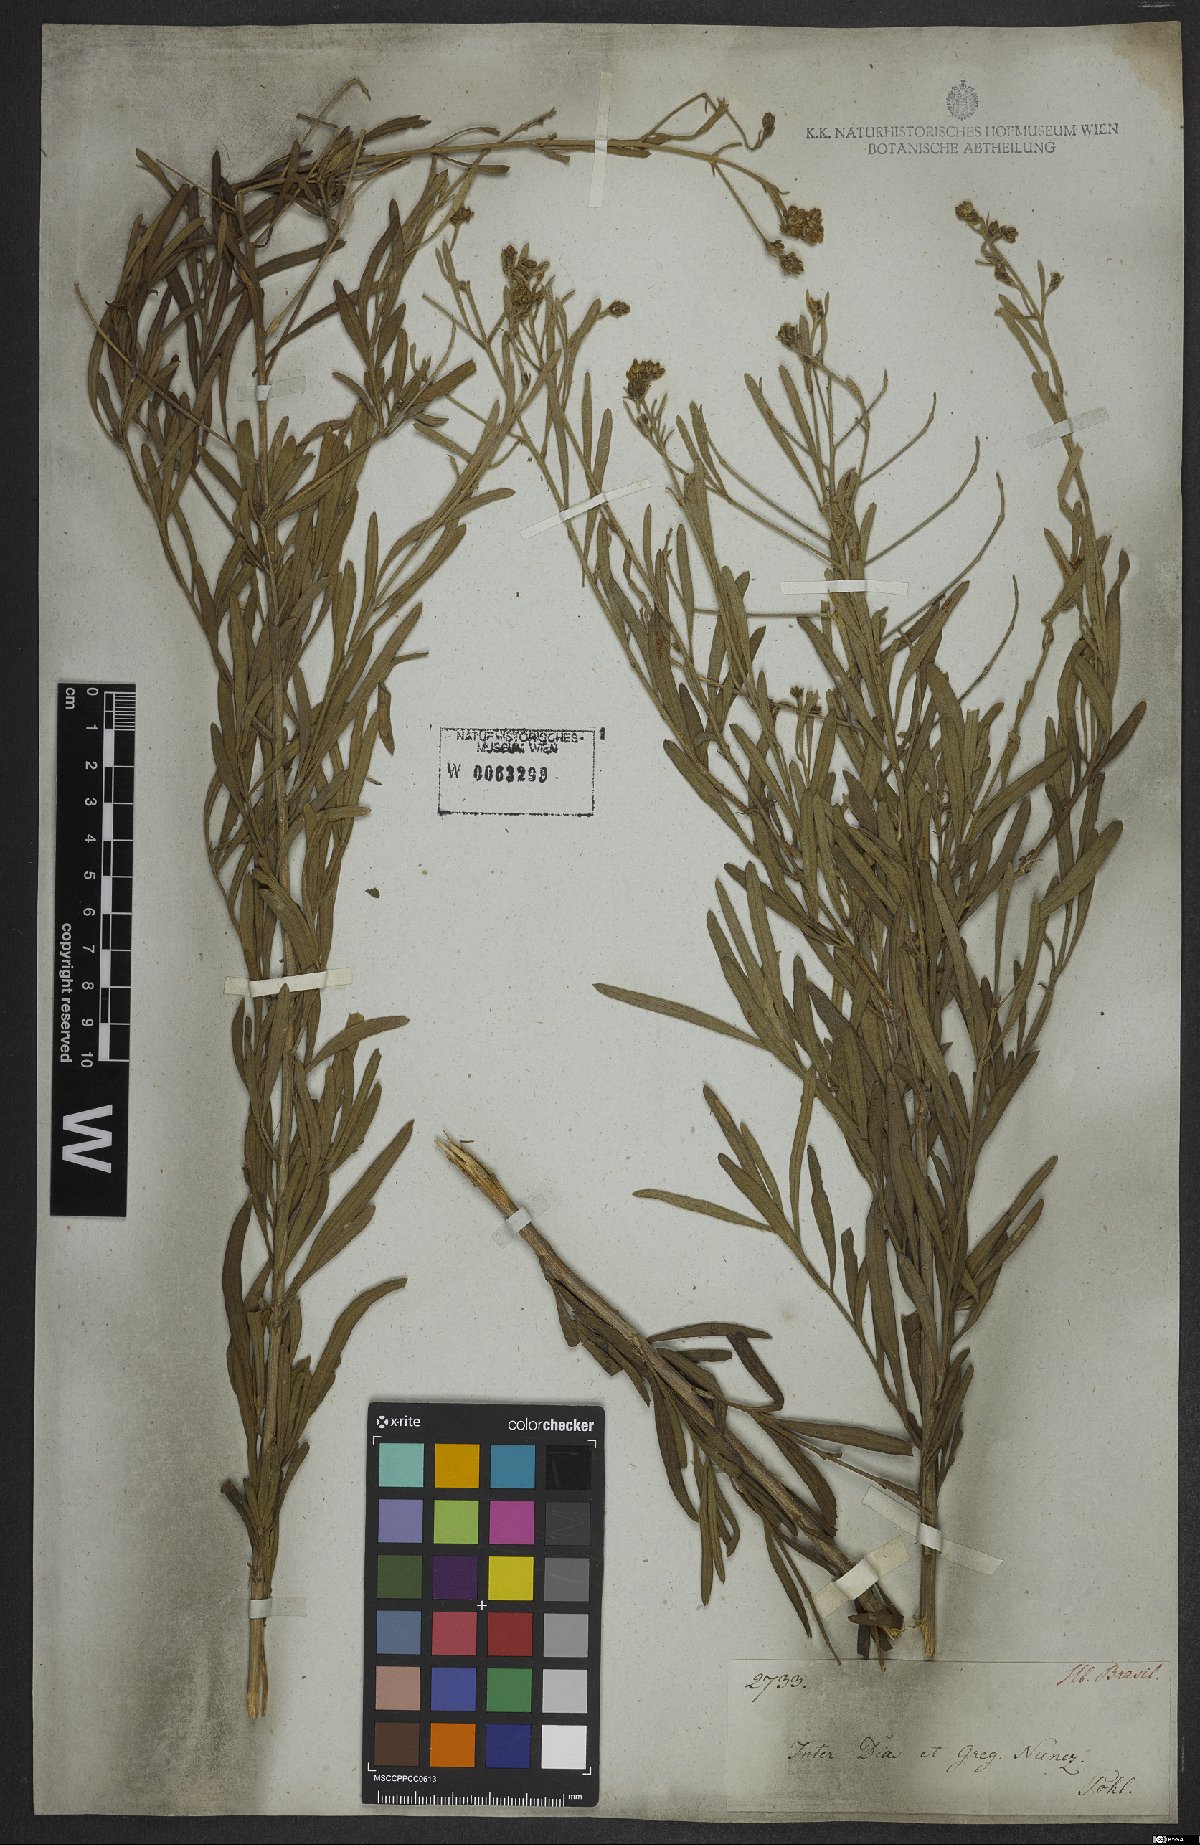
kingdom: Plantae
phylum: Tracheophyta
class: Magnoliopsida
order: Asterales
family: Asteraceae
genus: Disynaphia
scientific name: Disynaphia halimifolia
